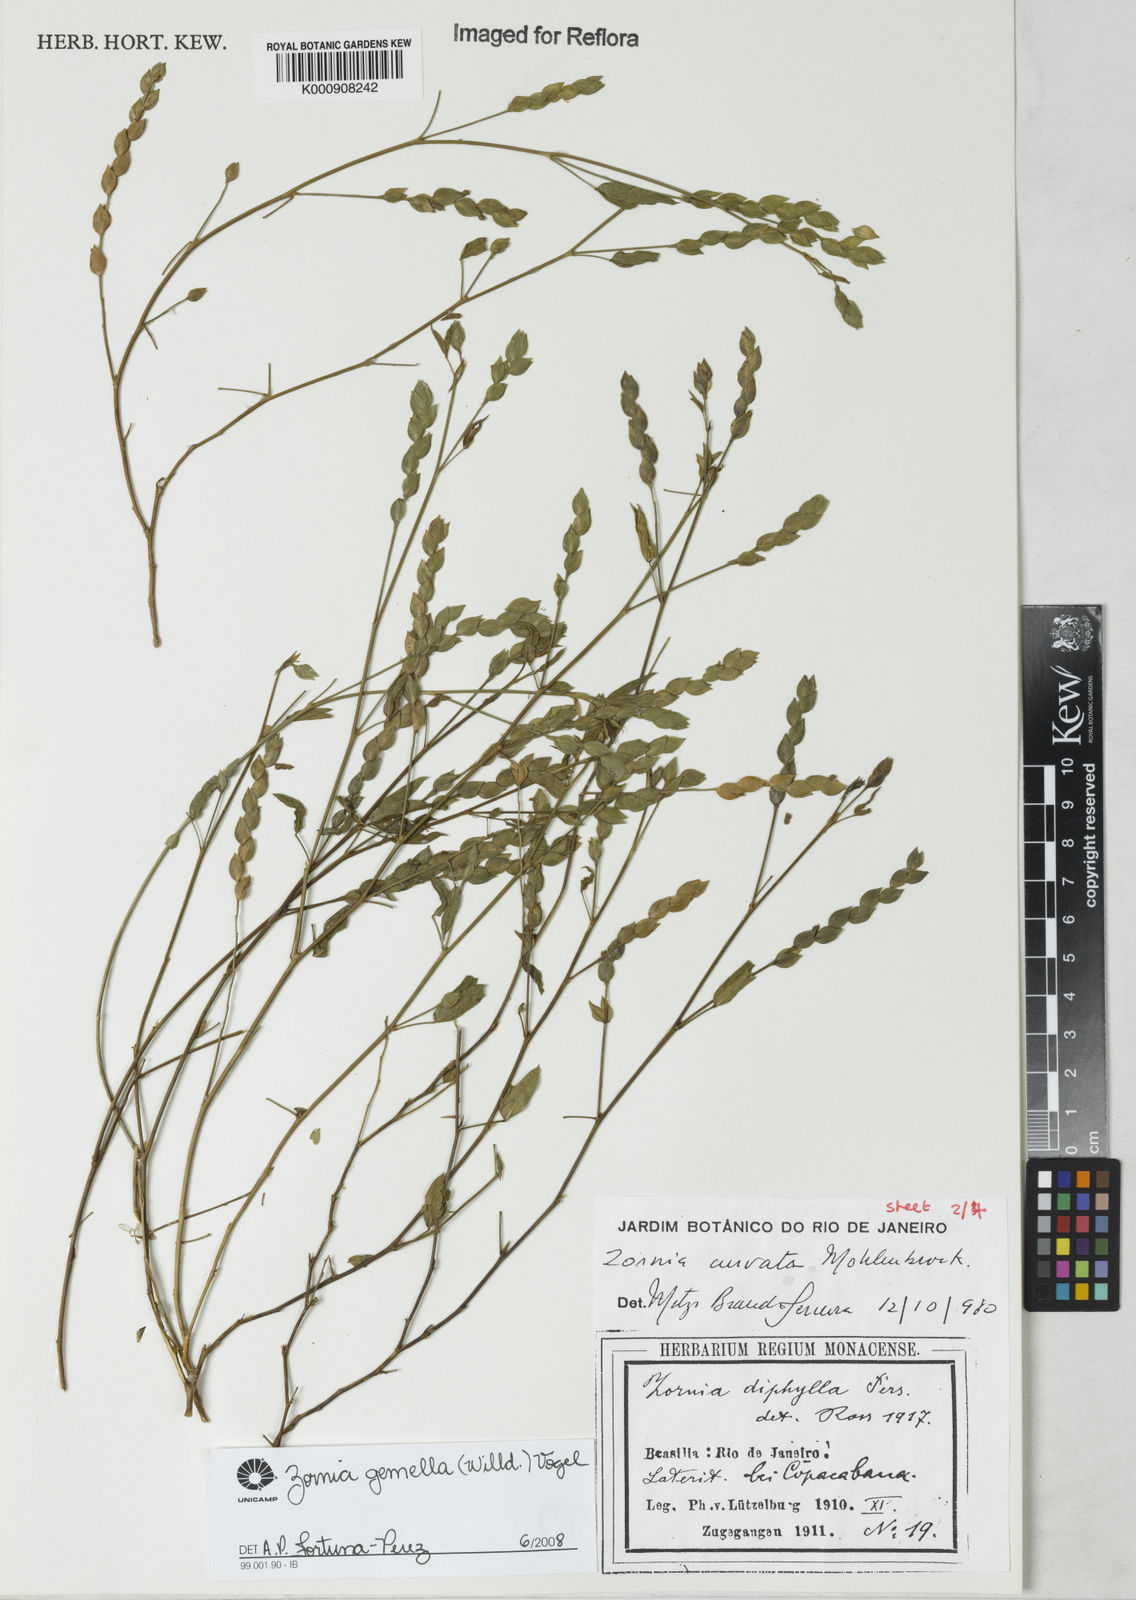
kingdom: Plantae
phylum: Tracheophyta
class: Magnoliopsida
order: Fabales
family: Fabaceae
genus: Zornia
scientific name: Zornia latifolia
